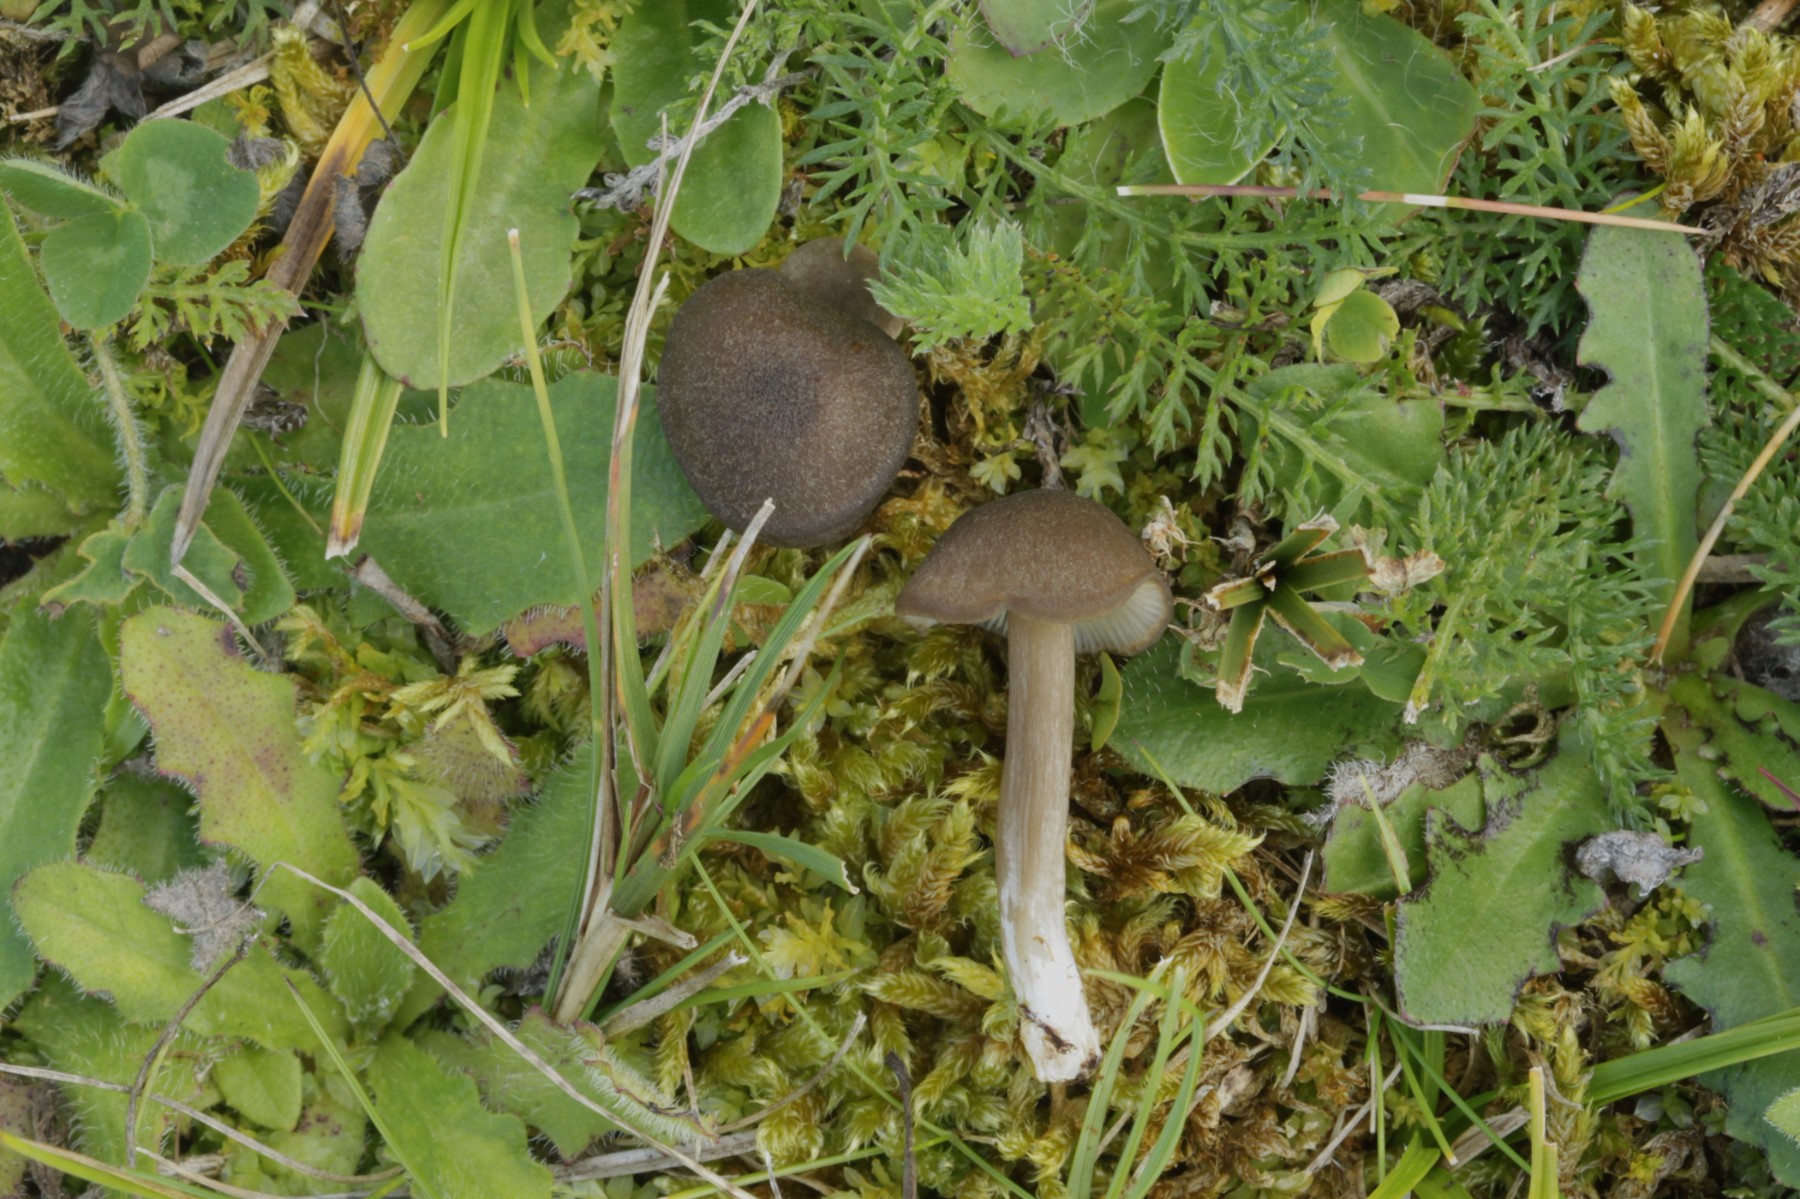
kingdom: Fungi
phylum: Basidiomycota
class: Agaricomycetes
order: Agaricales
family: Entolomataceae
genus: Entoloma
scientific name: Entoloma
